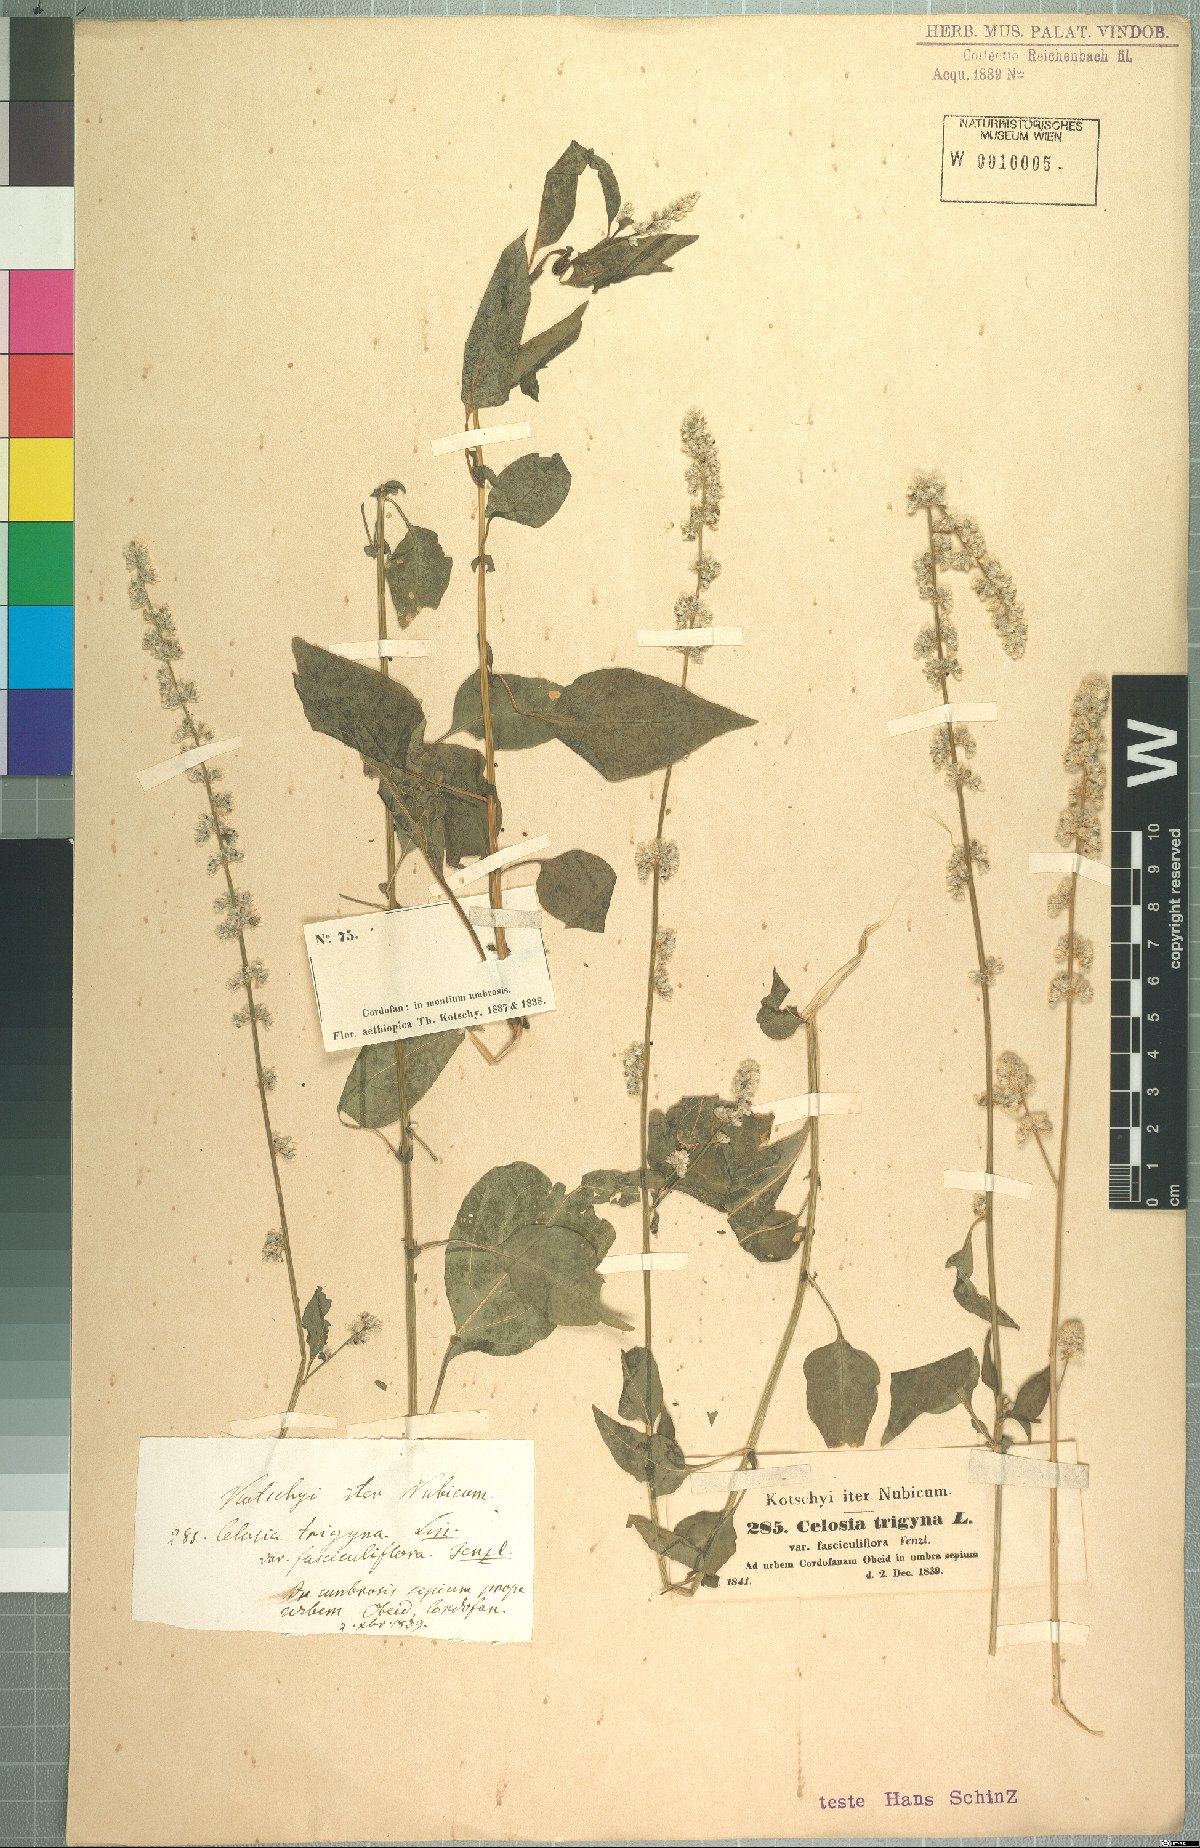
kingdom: Plantae
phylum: Tracheophyta
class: Magnoliopsida
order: Caryophyllales
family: Amaranthaceae
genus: Celosia
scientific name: Celosia trigyna
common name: Woolflower
